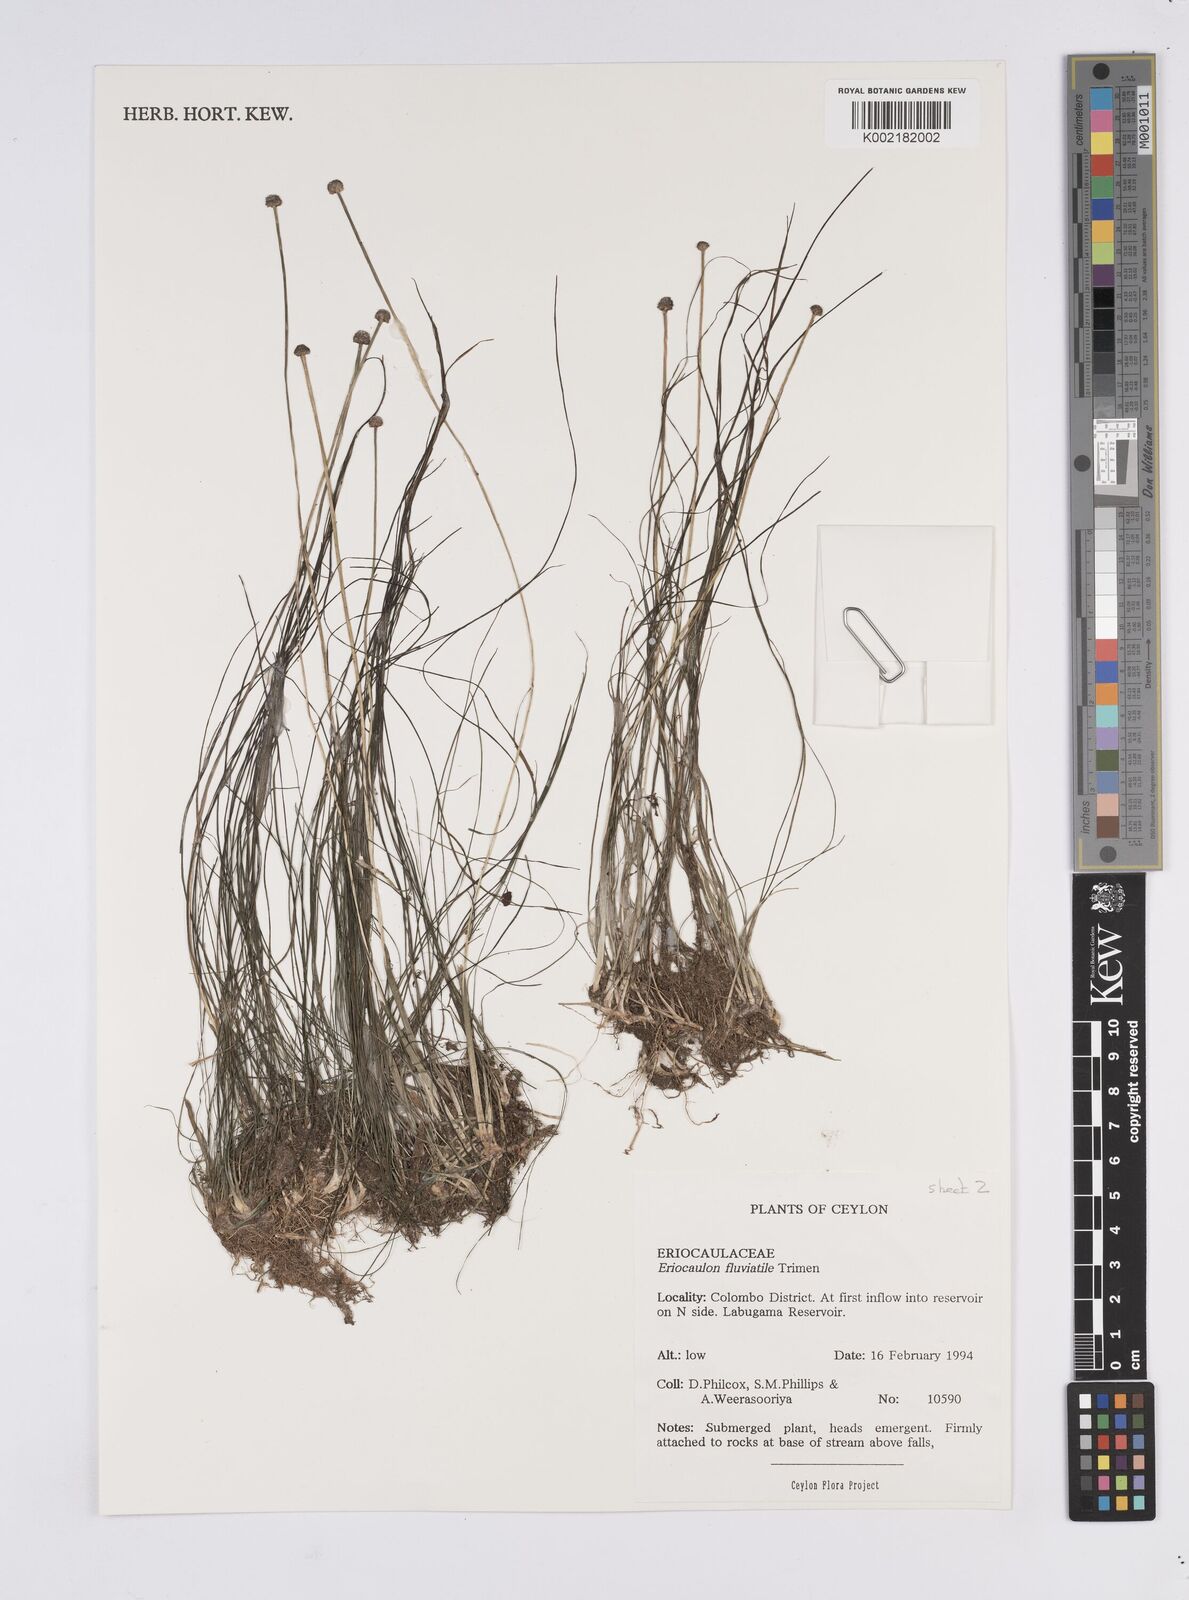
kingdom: Plantae
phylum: Tracheophyta
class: Liliopsida
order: Poales
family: Eriocaulaceae
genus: Eriocaulon
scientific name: Eriocaulon fluviatile
